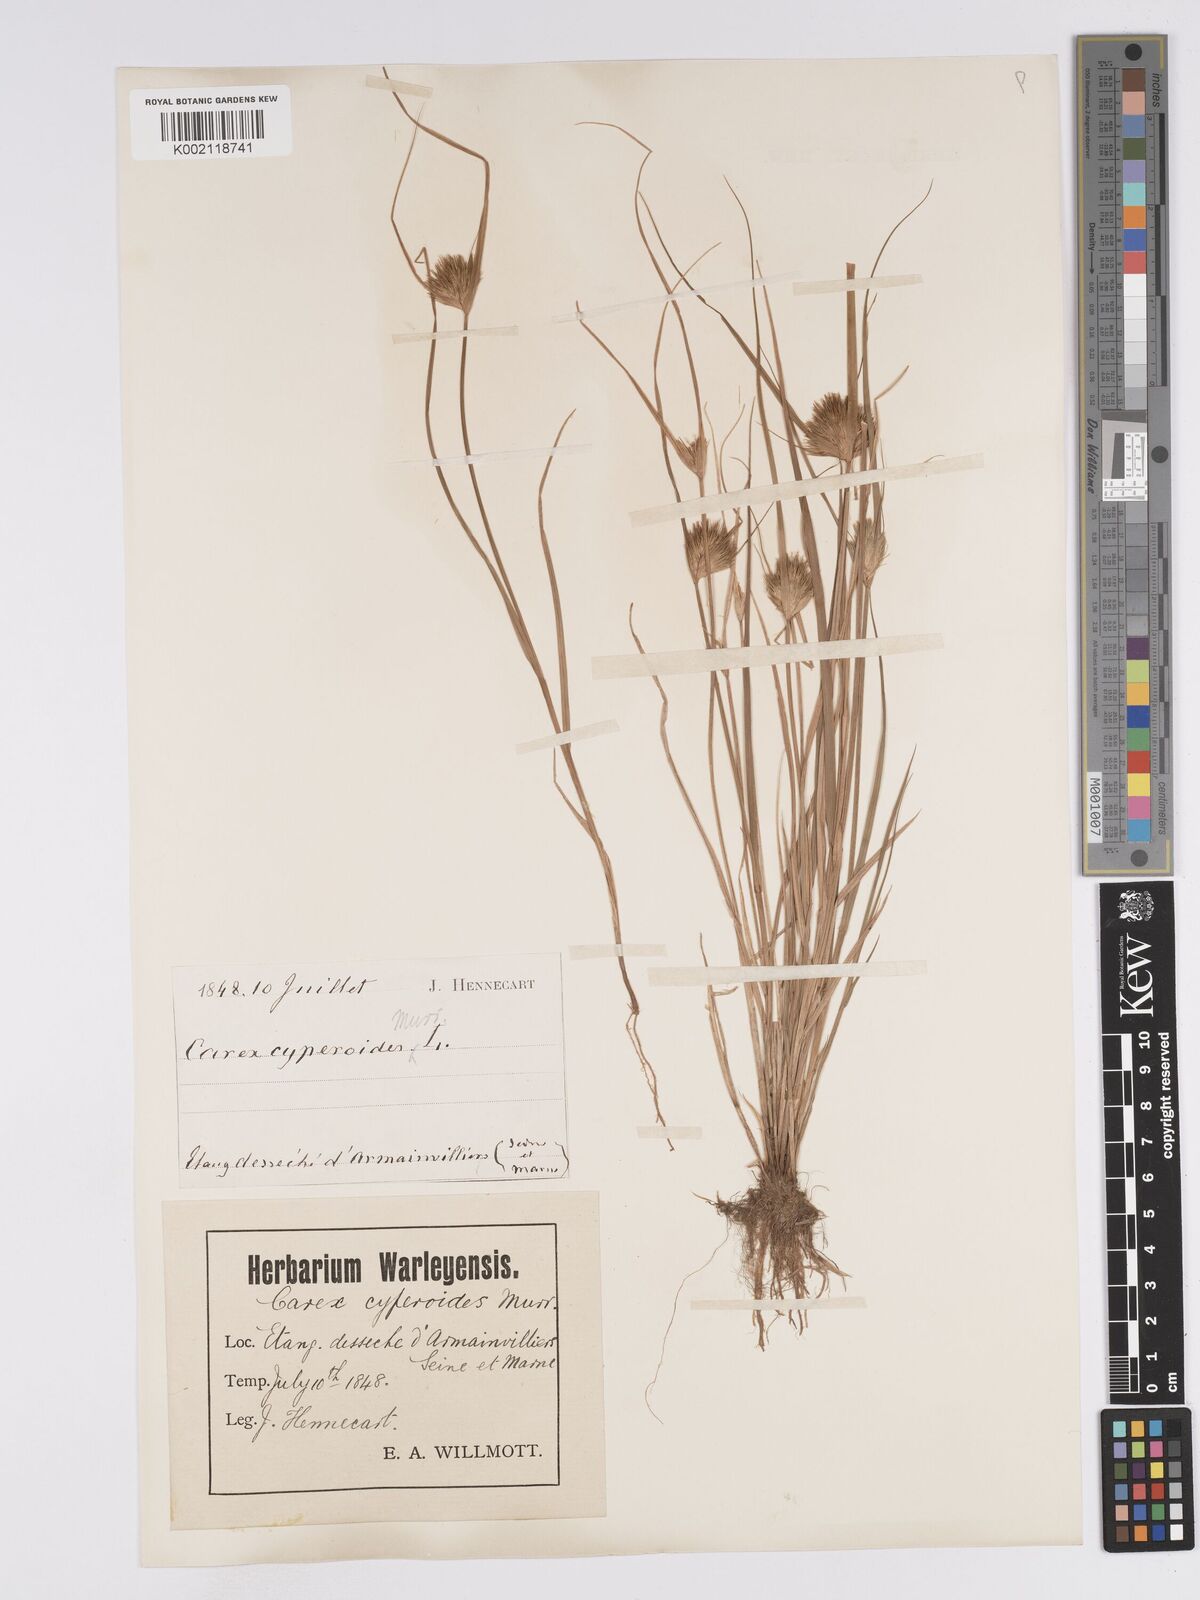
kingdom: Plantae
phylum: Tracheophyta
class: Liliopsida
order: Poales
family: Cyperaceae
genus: Carex
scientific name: Carex bohemica
